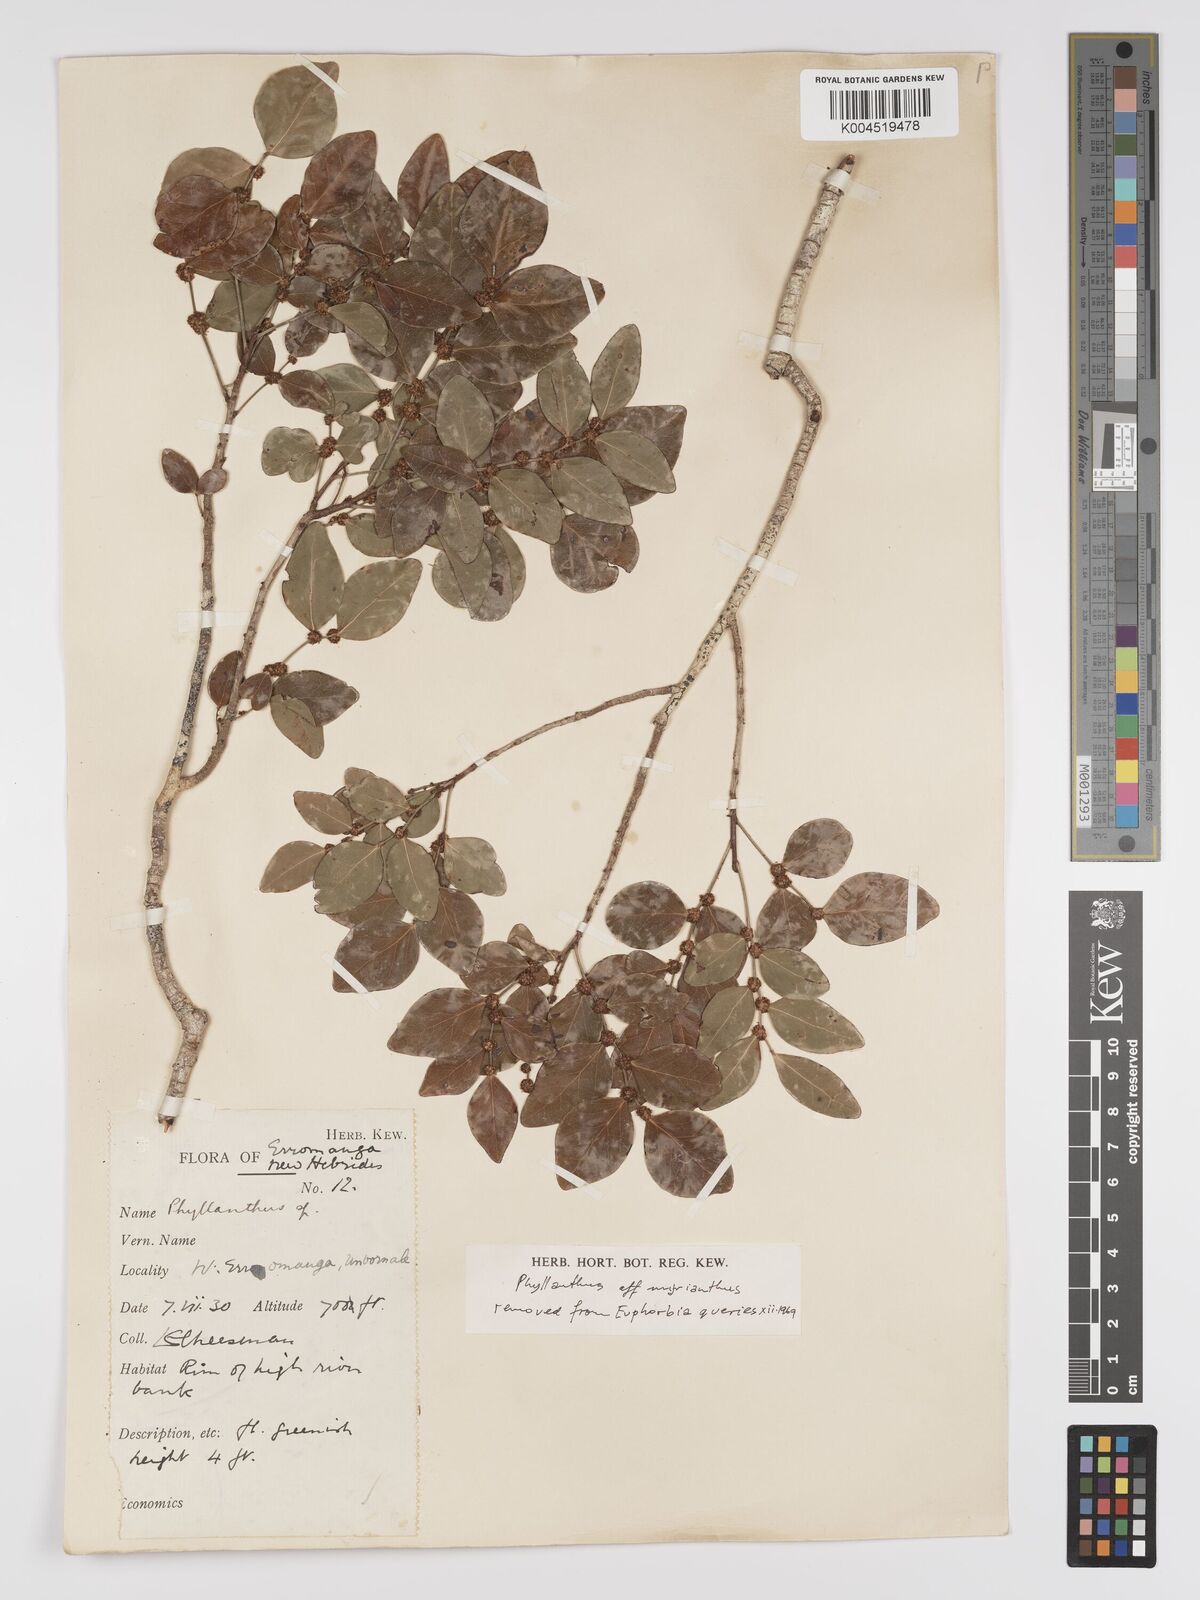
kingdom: Plantae
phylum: Tracheophyta
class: Magnoliopsida
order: Malpighiales
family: Phyllanthaceae
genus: Glochidion
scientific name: Glochidion myrianthum
